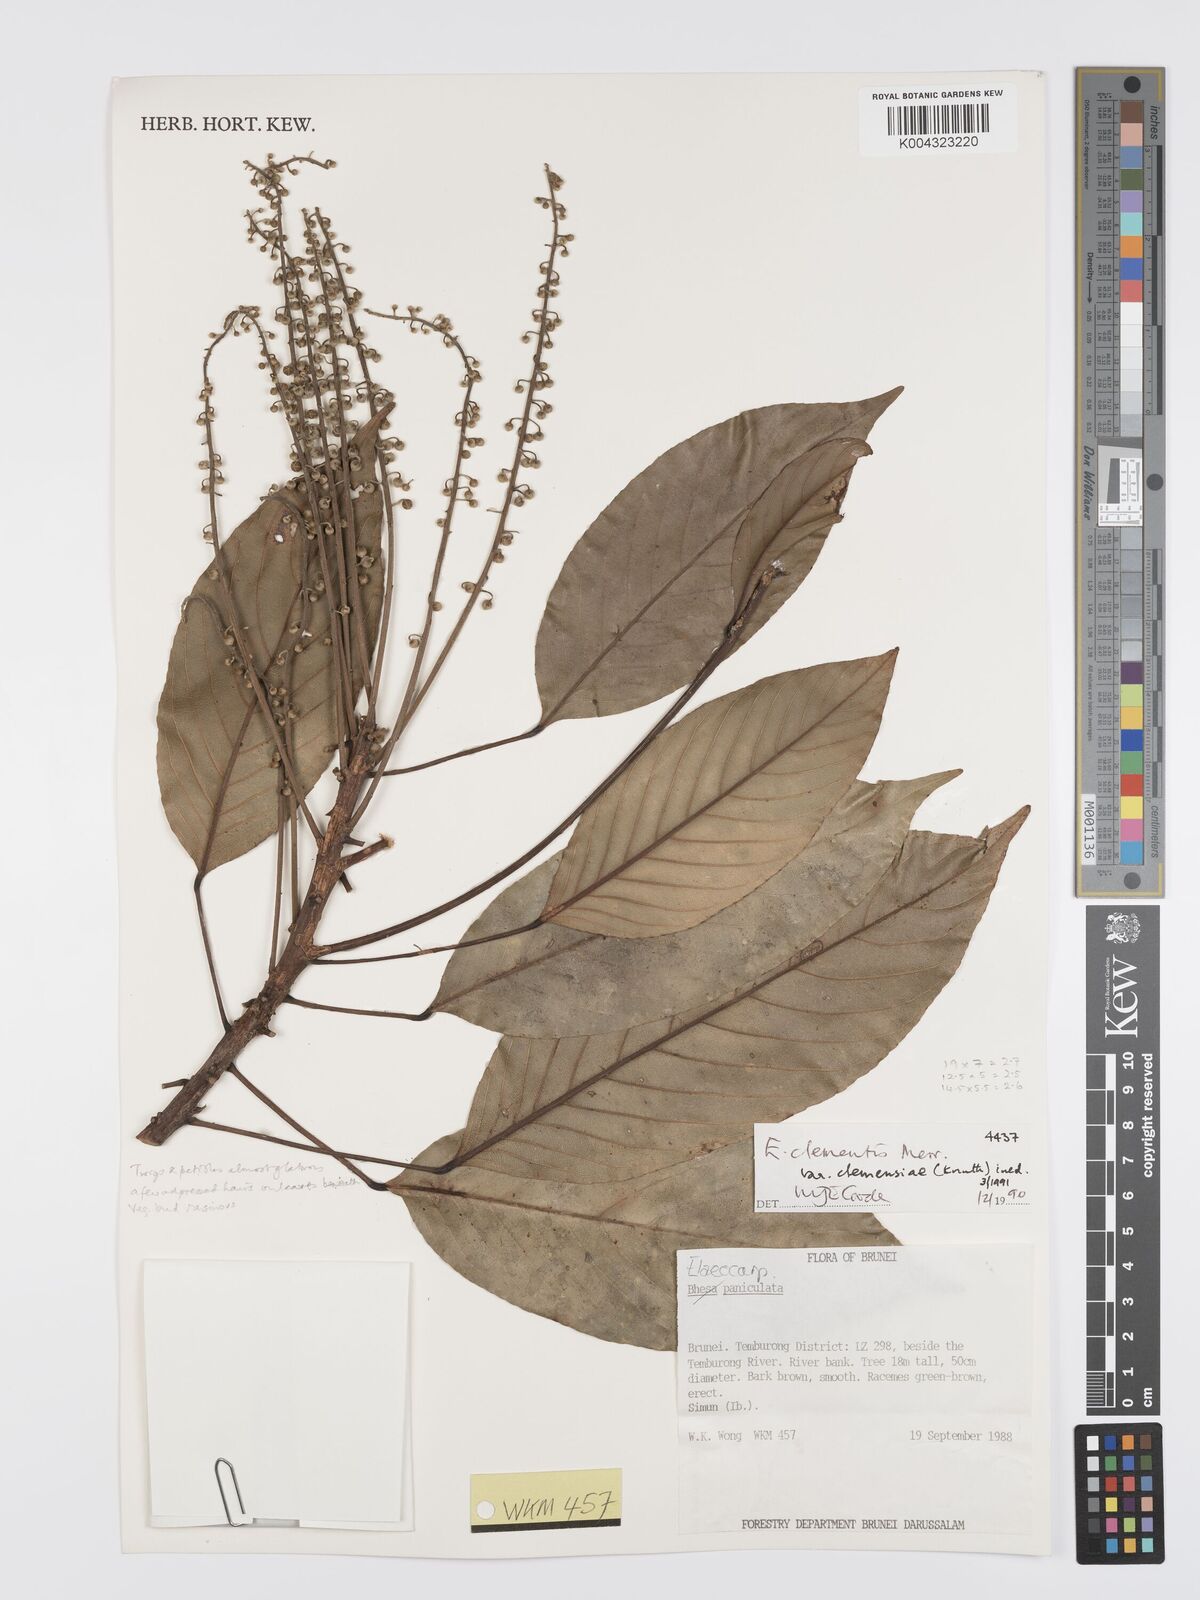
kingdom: Plantae
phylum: Tracheophyta
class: Magnoliopsida
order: Oxalidales
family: Elaeocarpaceae
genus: Elaeocarpus
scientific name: Elaeocarpus clementis
